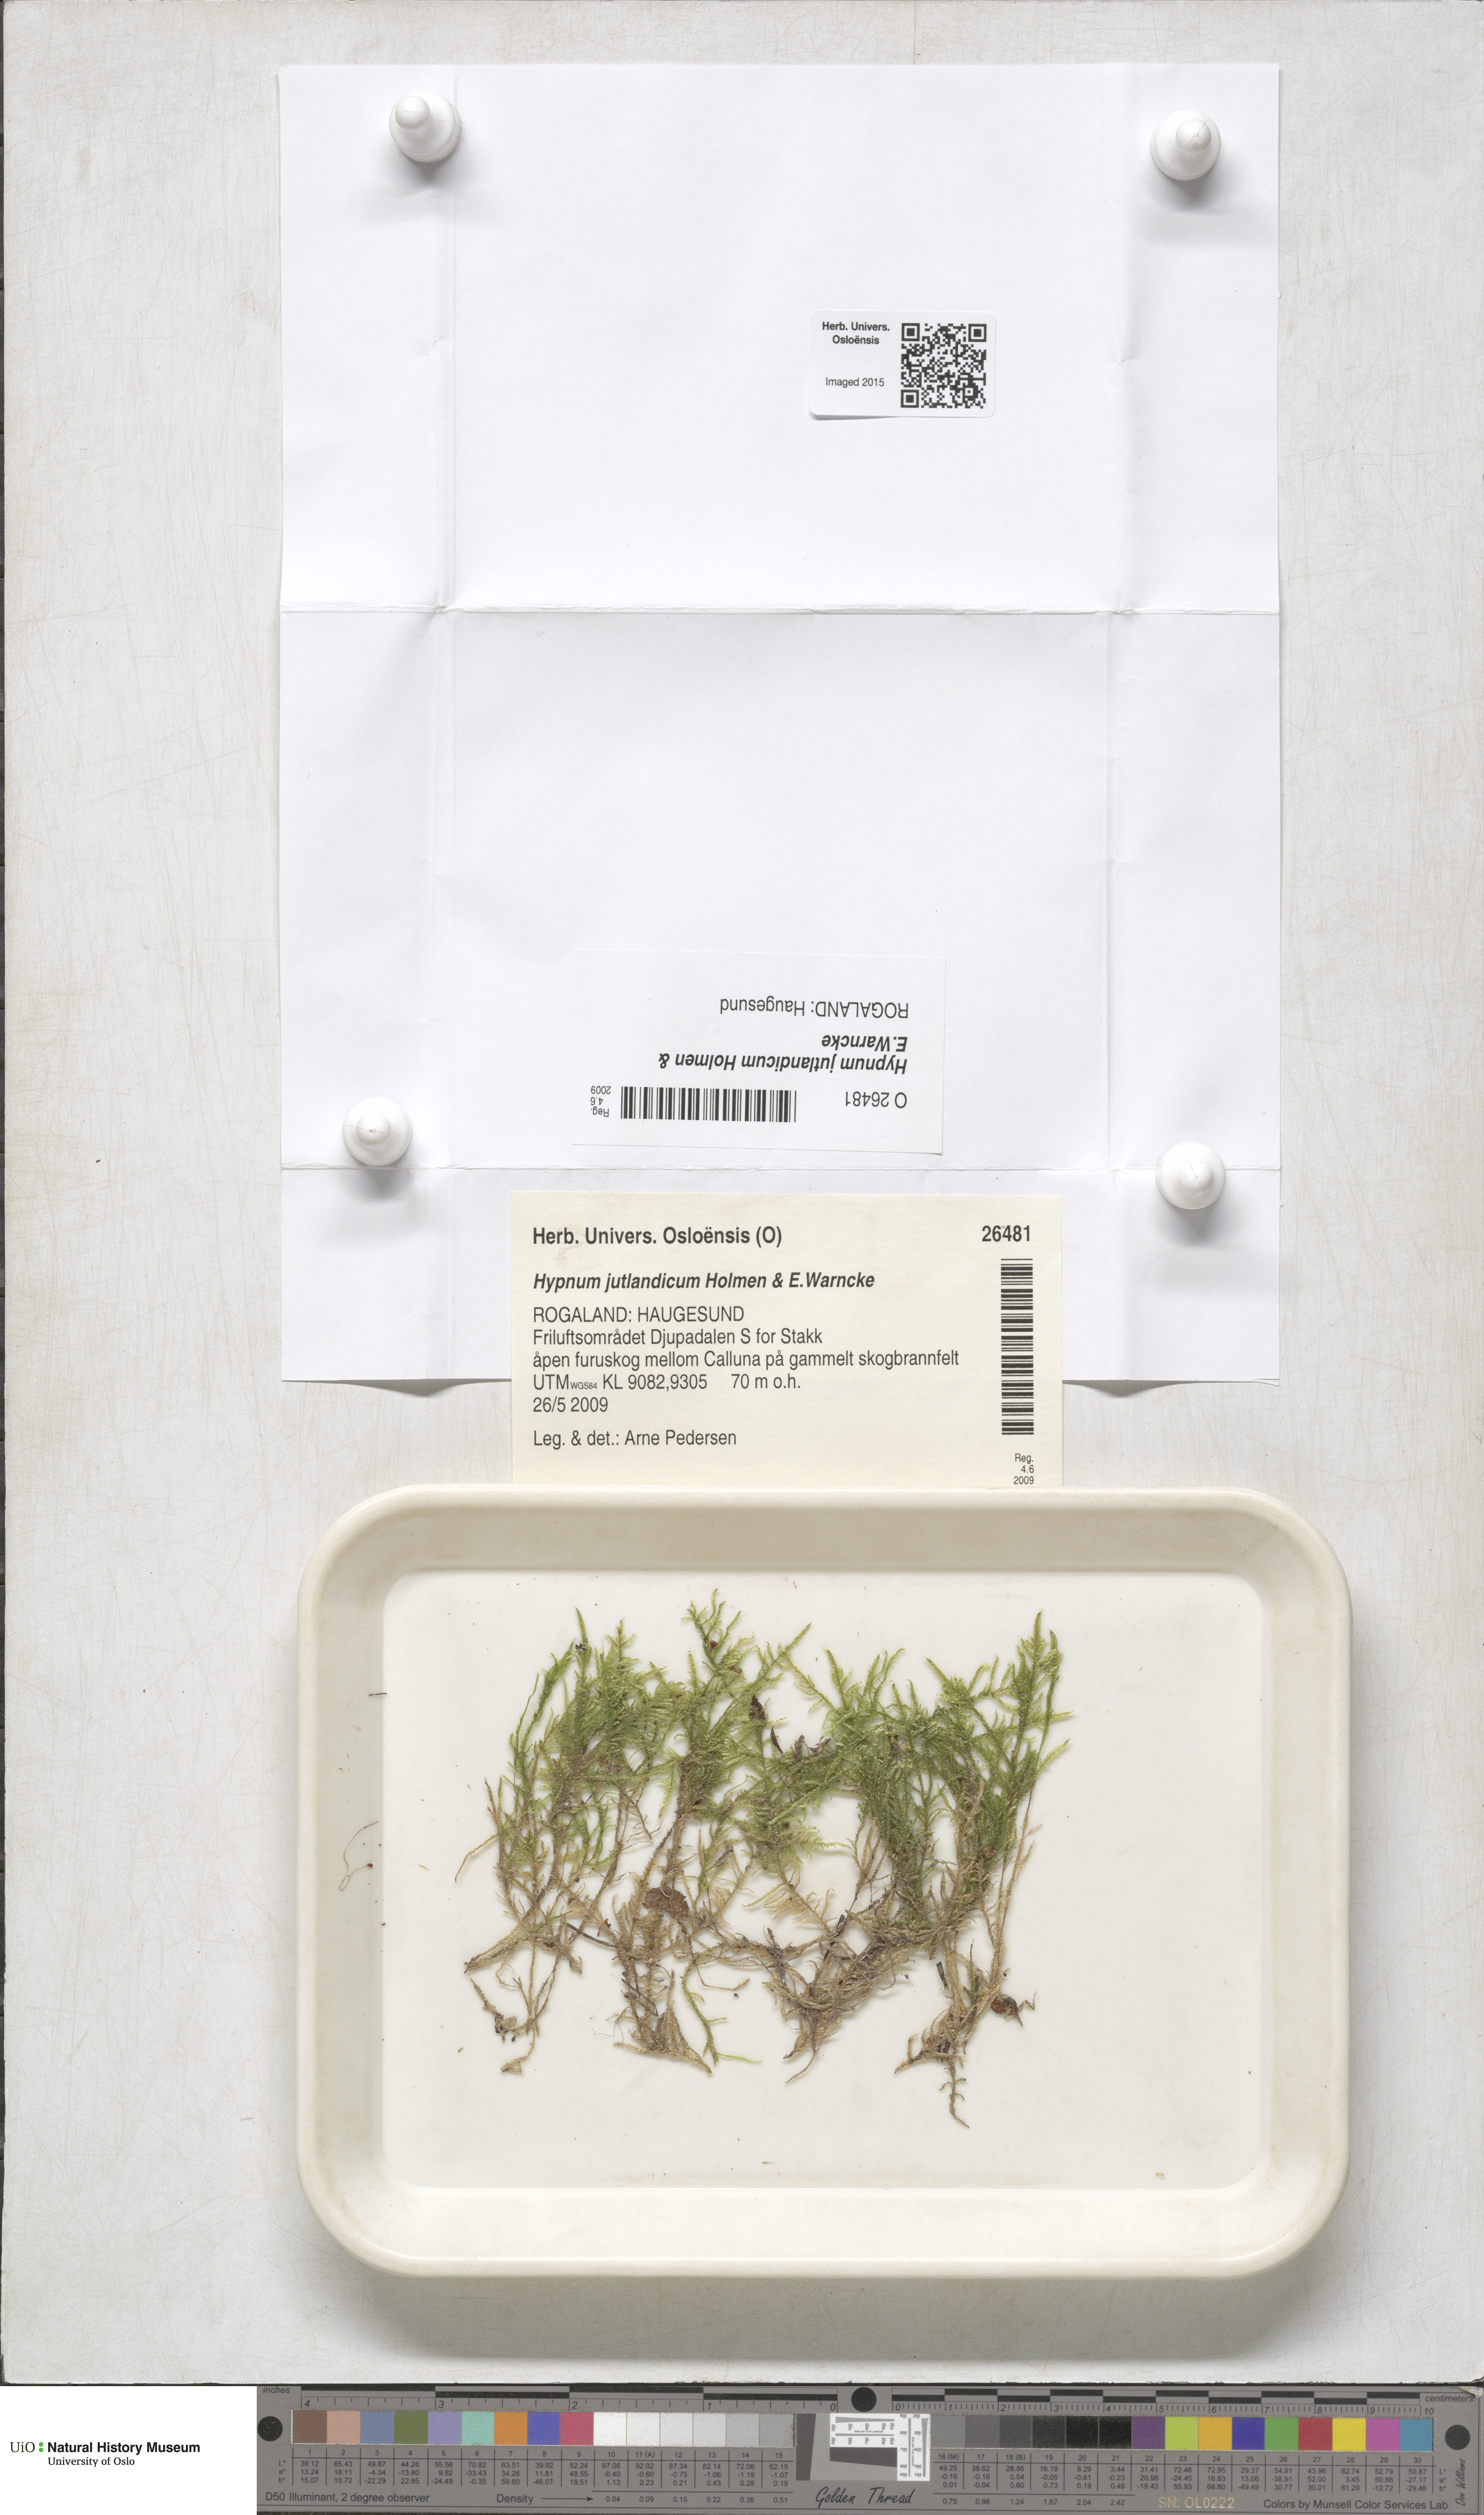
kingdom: Plantae
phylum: Bryophyta
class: Bryopsida
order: Hypnales
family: Hypnaceae
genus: Hypnum
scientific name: Hypnum jutlandicum
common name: Heath plait-moss
